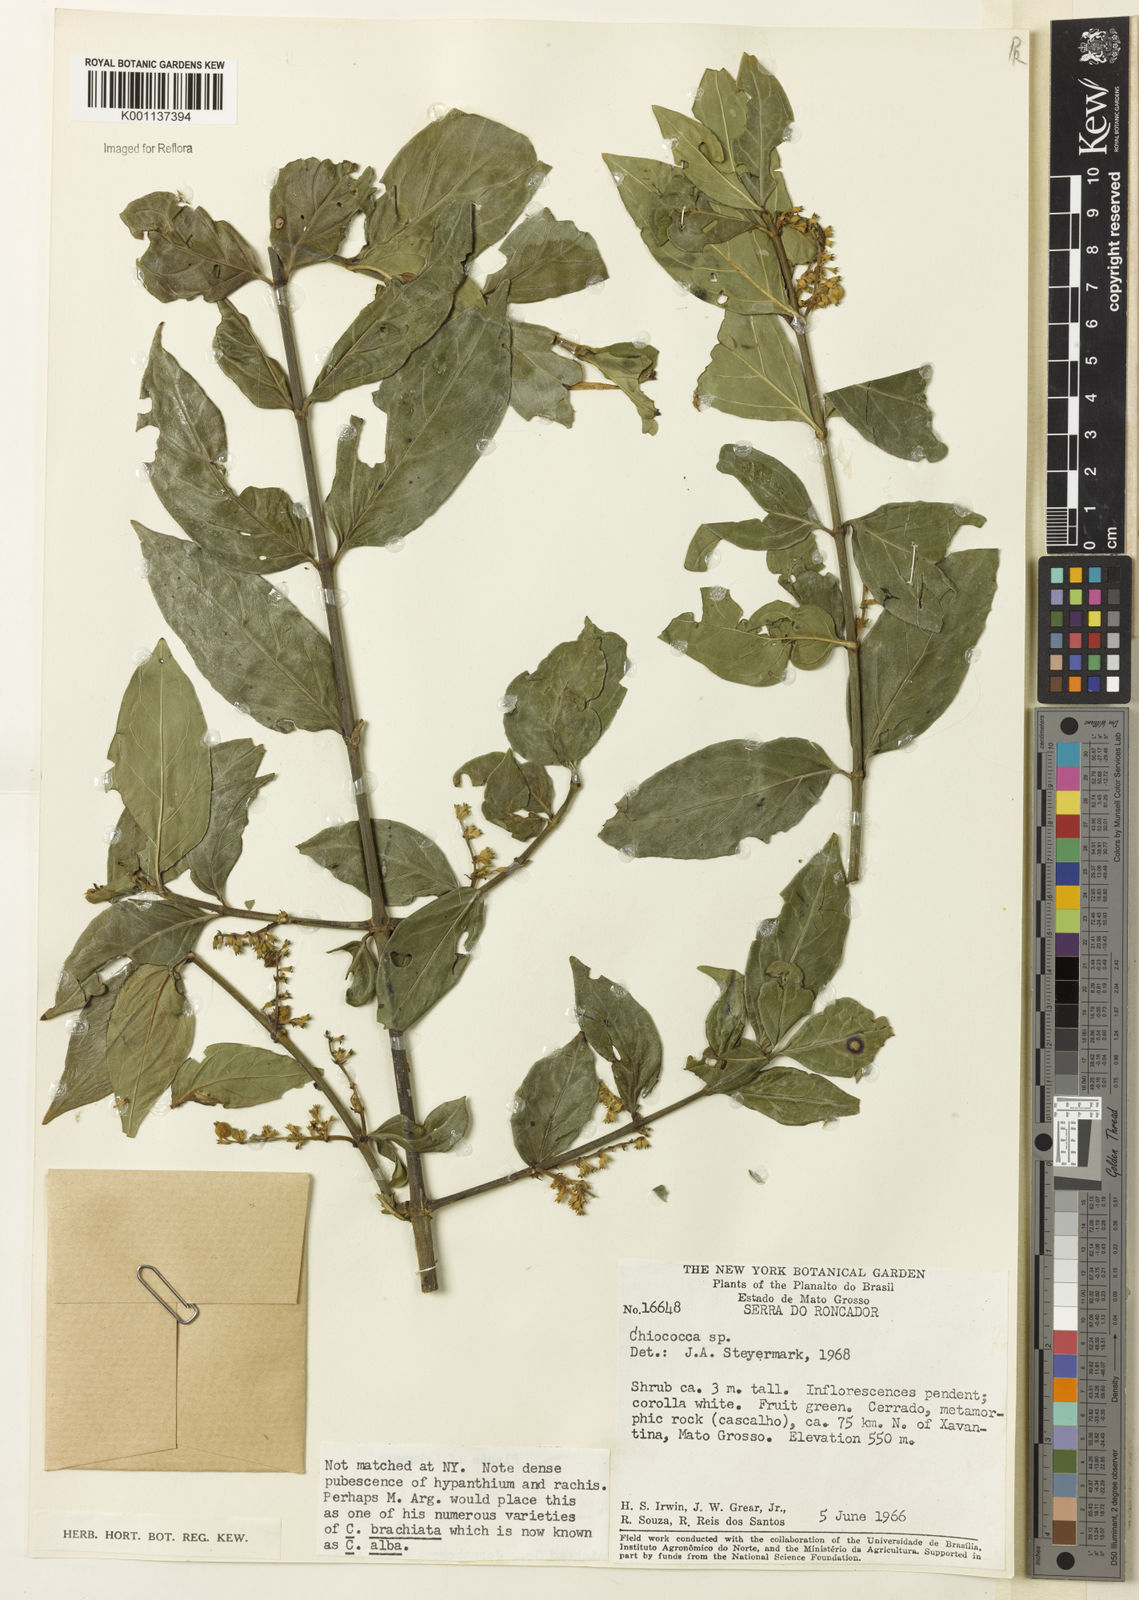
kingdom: Plantae
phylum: Tracheophyta
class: Magnoliopsida
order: Gentianales
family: Rubiaceae
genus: Chiococca
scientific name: Chiococca
